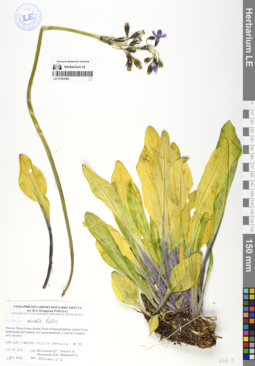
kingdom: Plantae
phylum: Tracheophyta
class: Magnoliopsida
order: Ericales
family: Primulaceae
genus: Primula
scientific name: Primula nivalis
